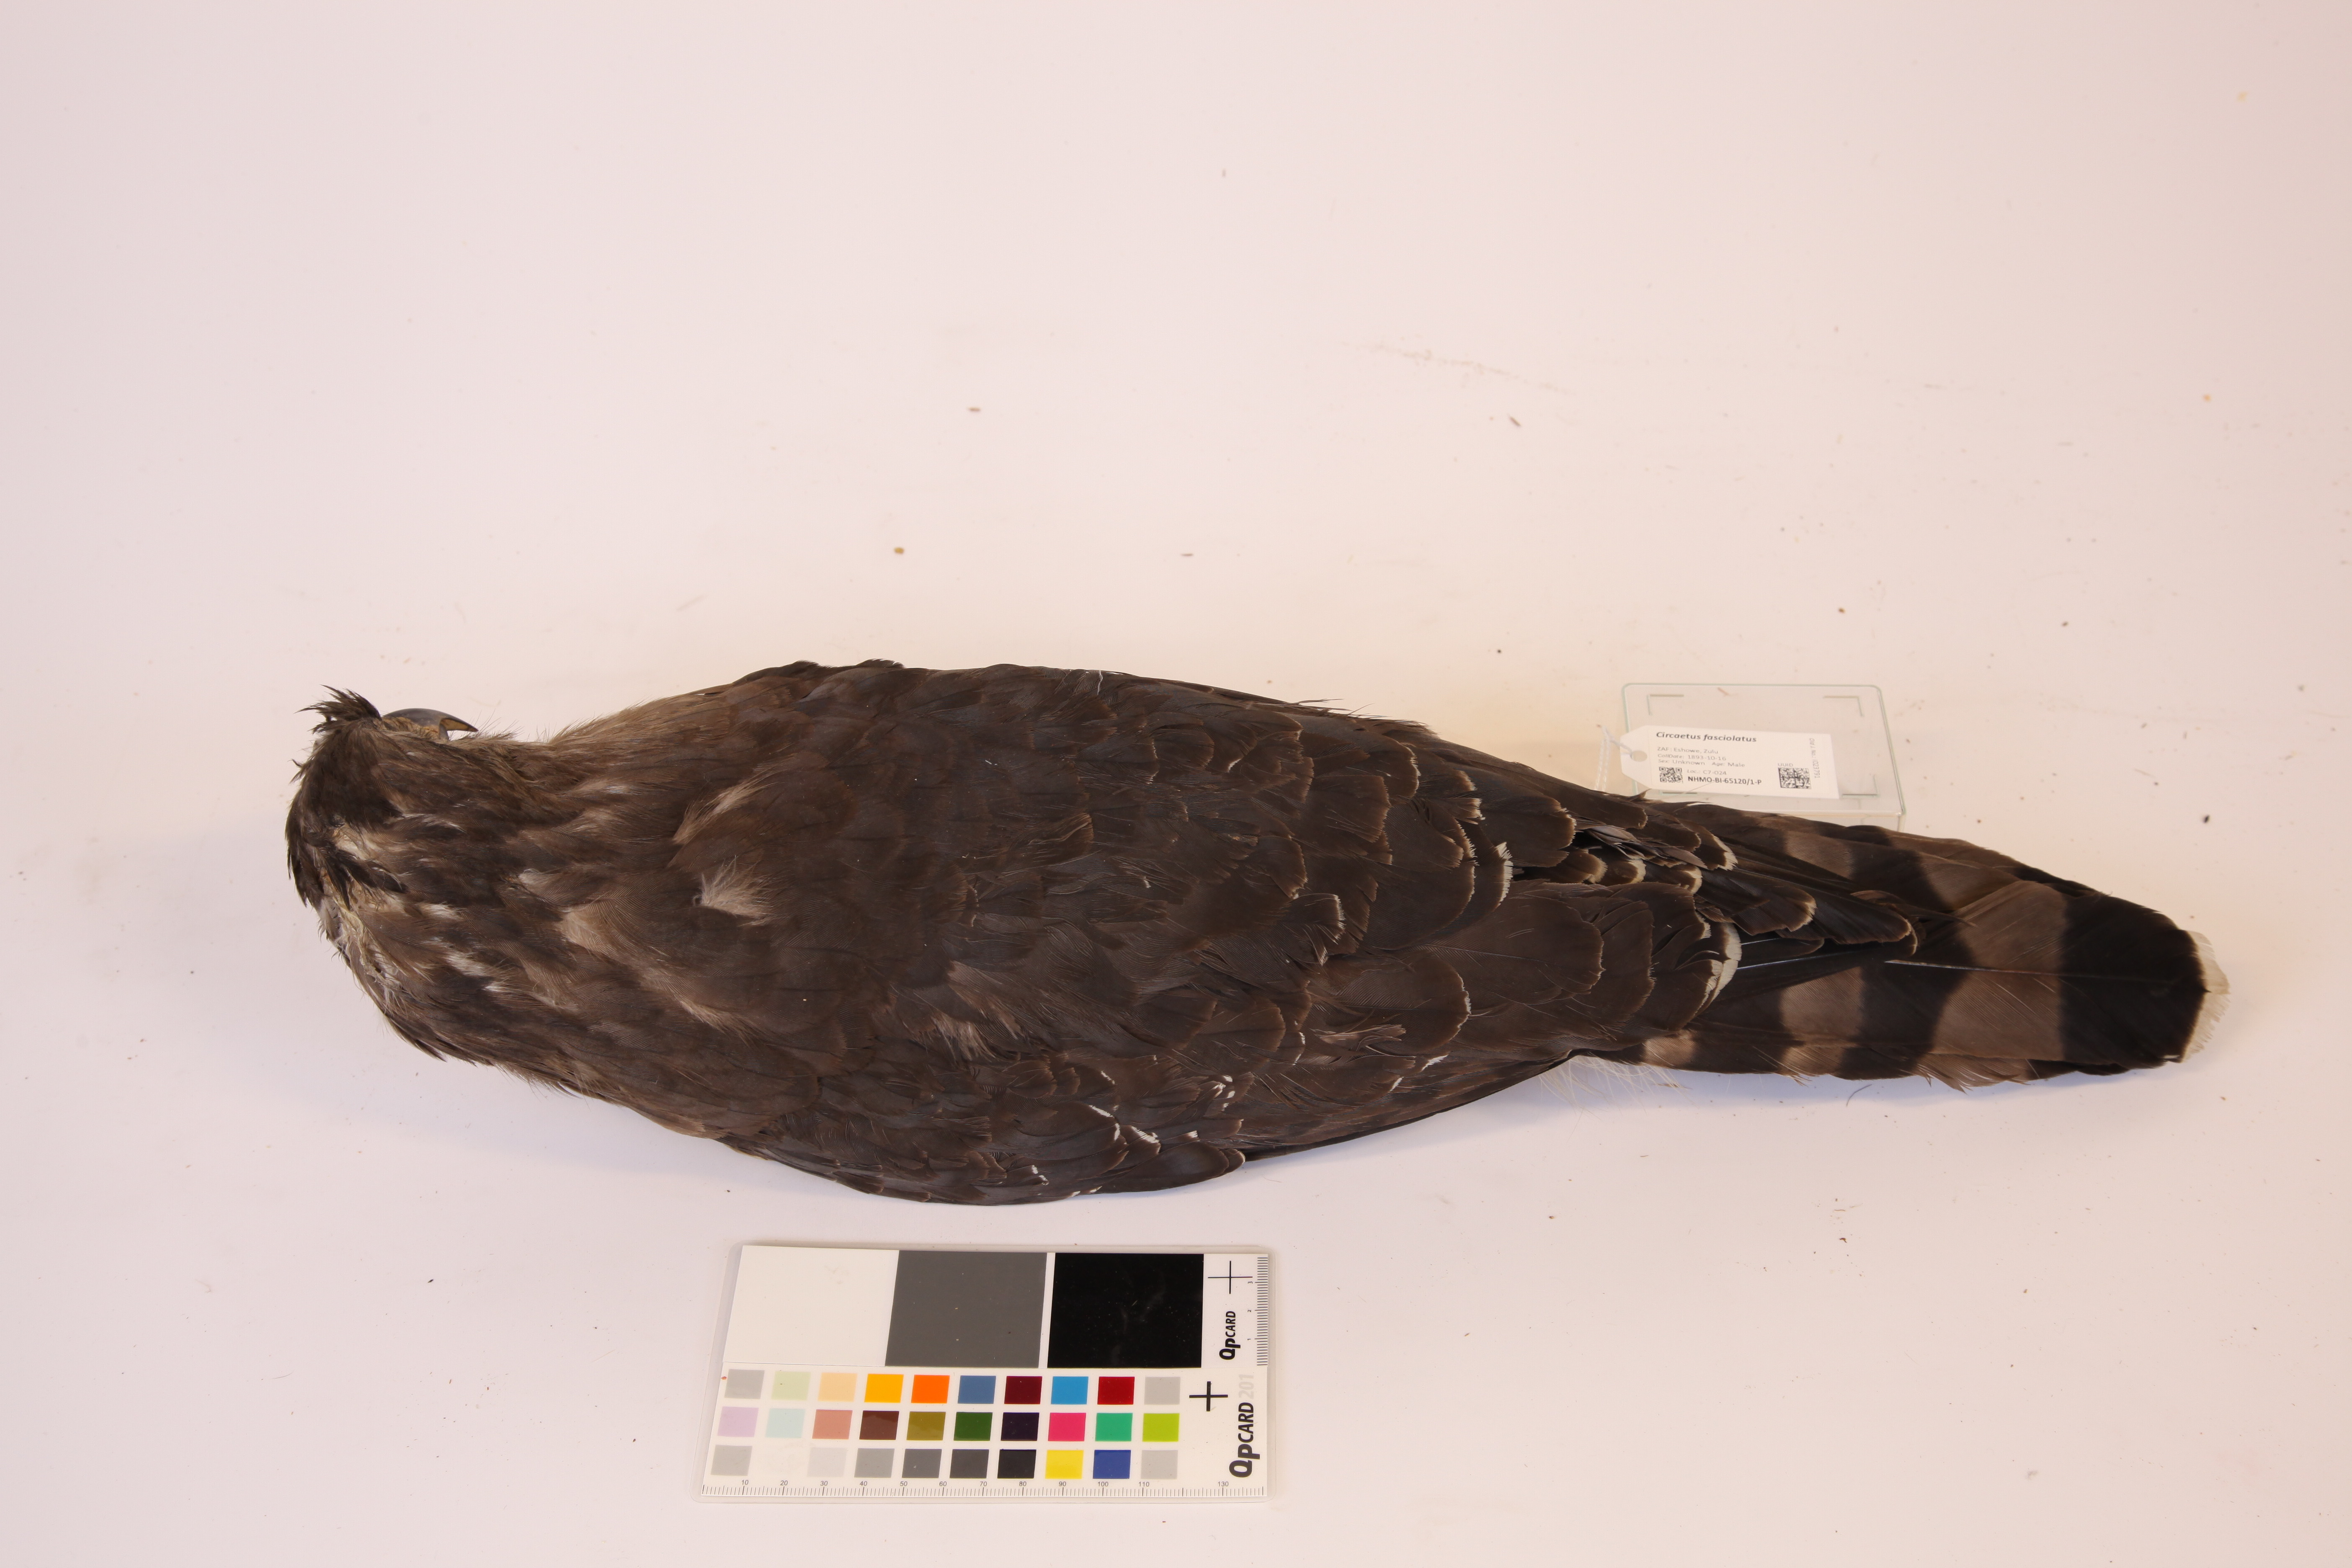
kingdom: Animalia
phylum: Chordata
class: Aves
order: Accipitriformes
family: Accipitridae
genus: Circaetus
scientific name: Circaetus fasciolatus
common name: Southern banded snake eagle
